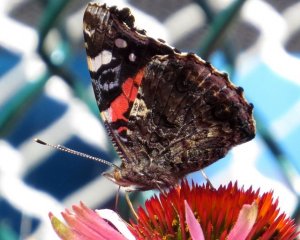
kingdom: Animalia
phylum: Arthropoda
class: Insecta
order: Lepidoptera
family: Nymphalidae
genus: Vanessa
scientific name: Vanessa atalanta
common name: Red Admiral
